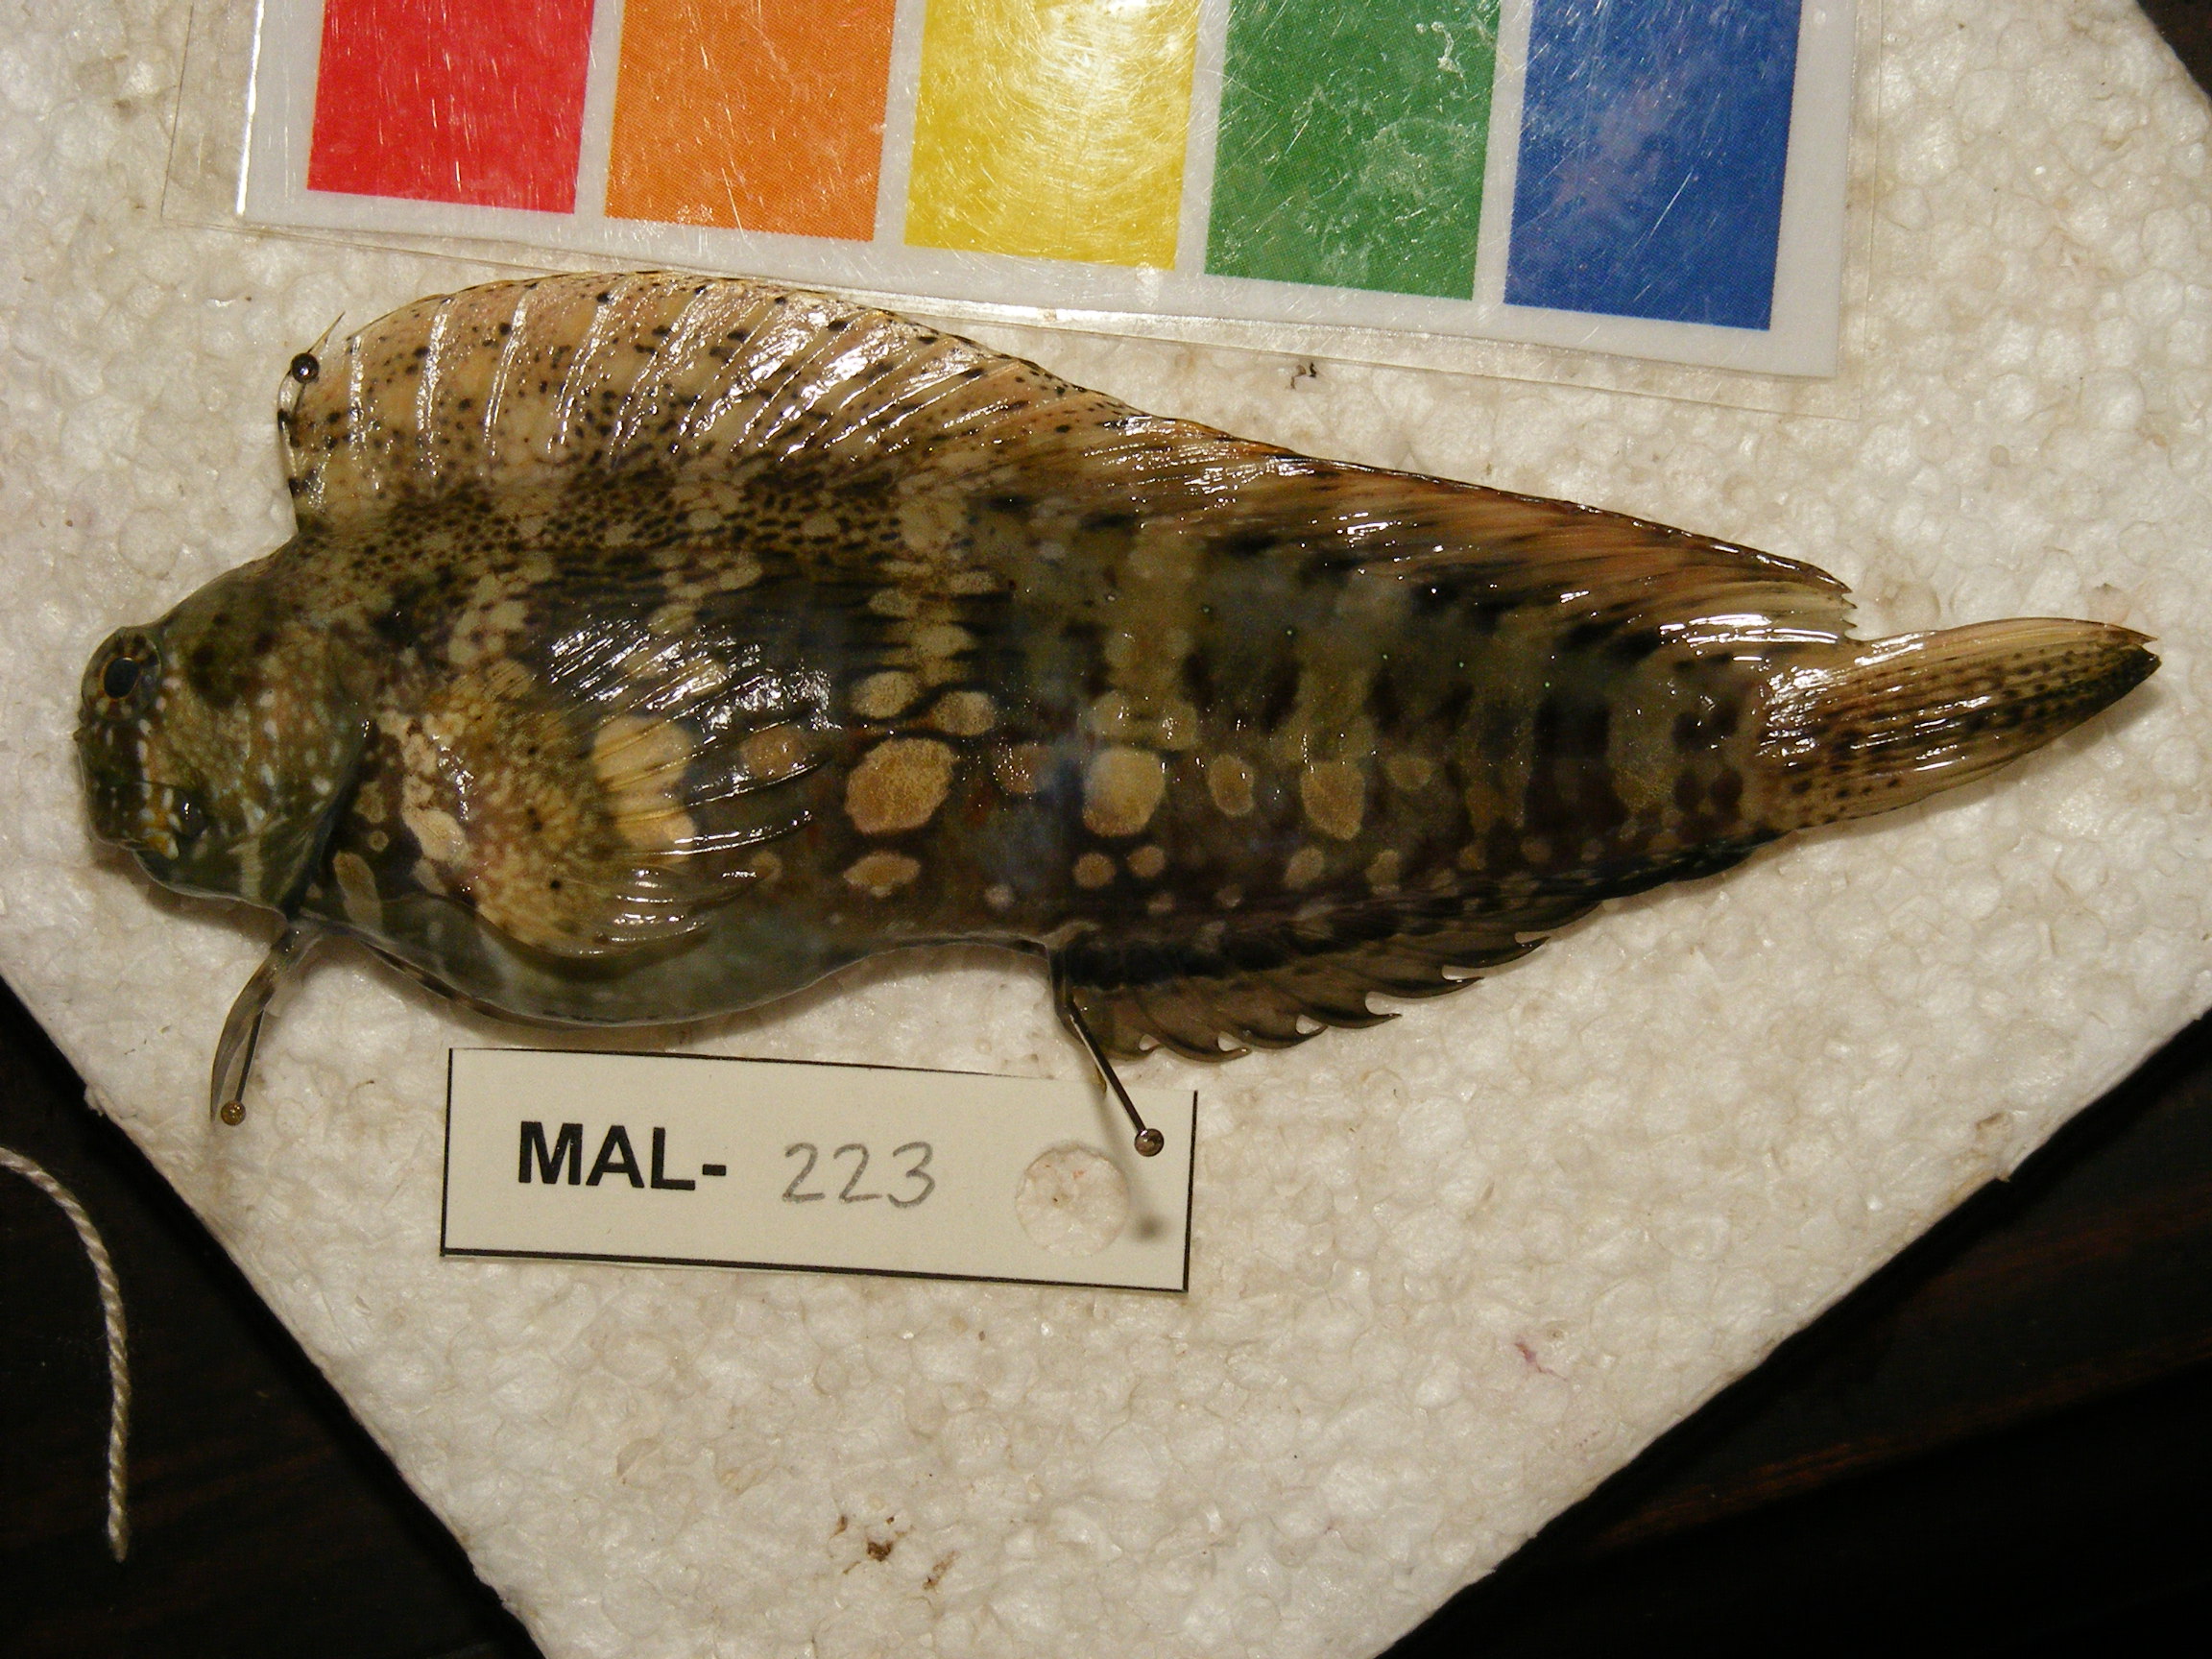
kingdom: Animalia
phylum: Chordata
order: Perciformes
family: Blenniidae
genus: Salarias
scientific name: Salarias fasciatus
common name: Jewelled blenny
